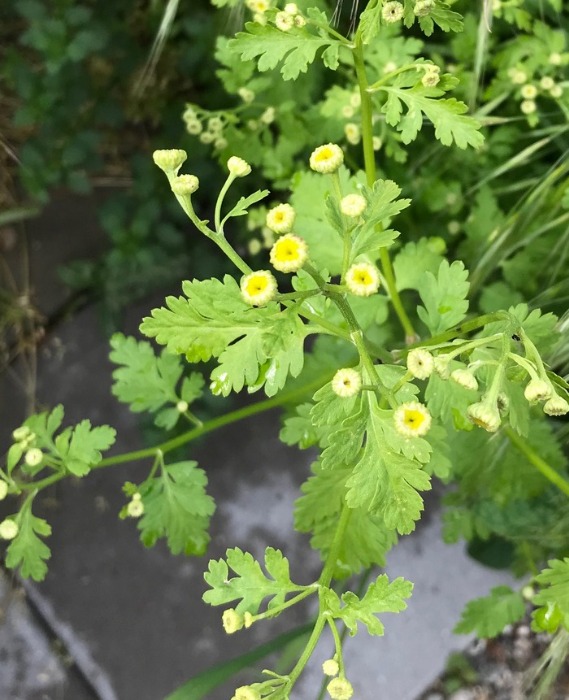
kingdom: Plantae
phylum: Tracheophyta
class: Magnoliopsida
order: Asterales
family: Asteraceae
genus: Tanacetum
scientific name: Tanacetum parthenium
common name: Matrem
